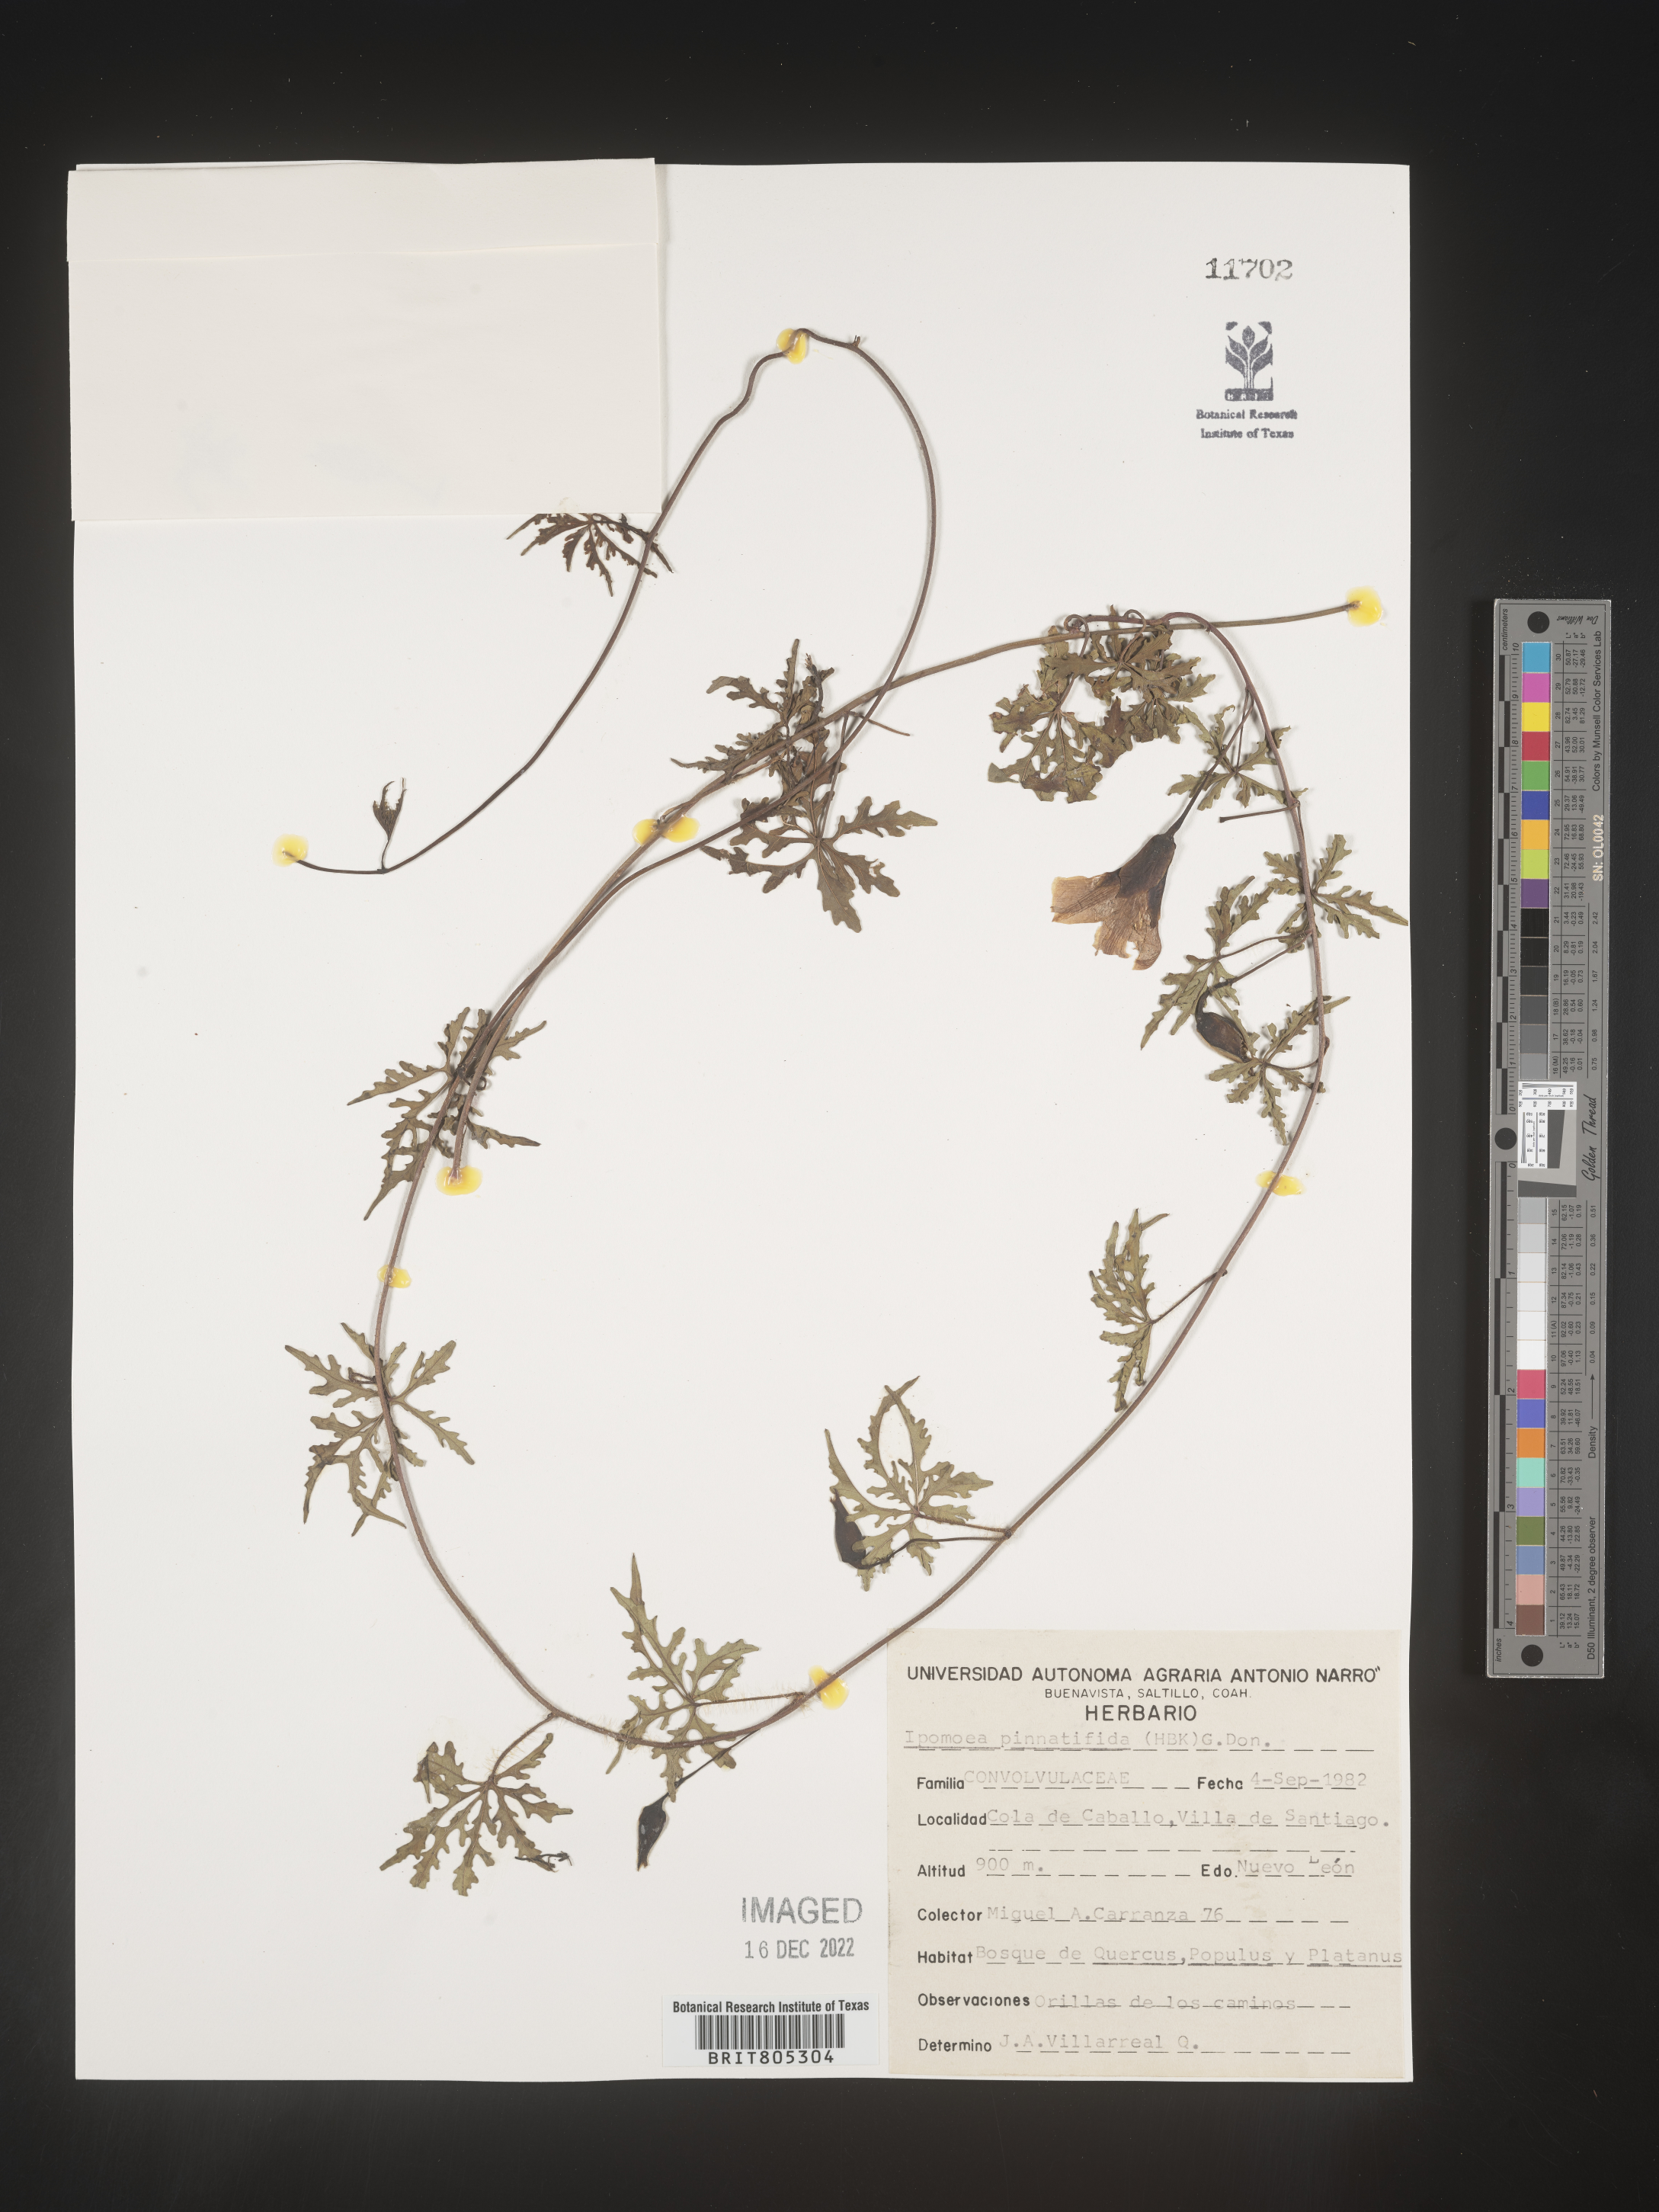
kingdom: Plantae
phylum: Tracheophyta
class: Magnoliopsida
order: Solanales
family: Convolvulaceae
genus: Ipomoea
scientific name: Ipomoea
